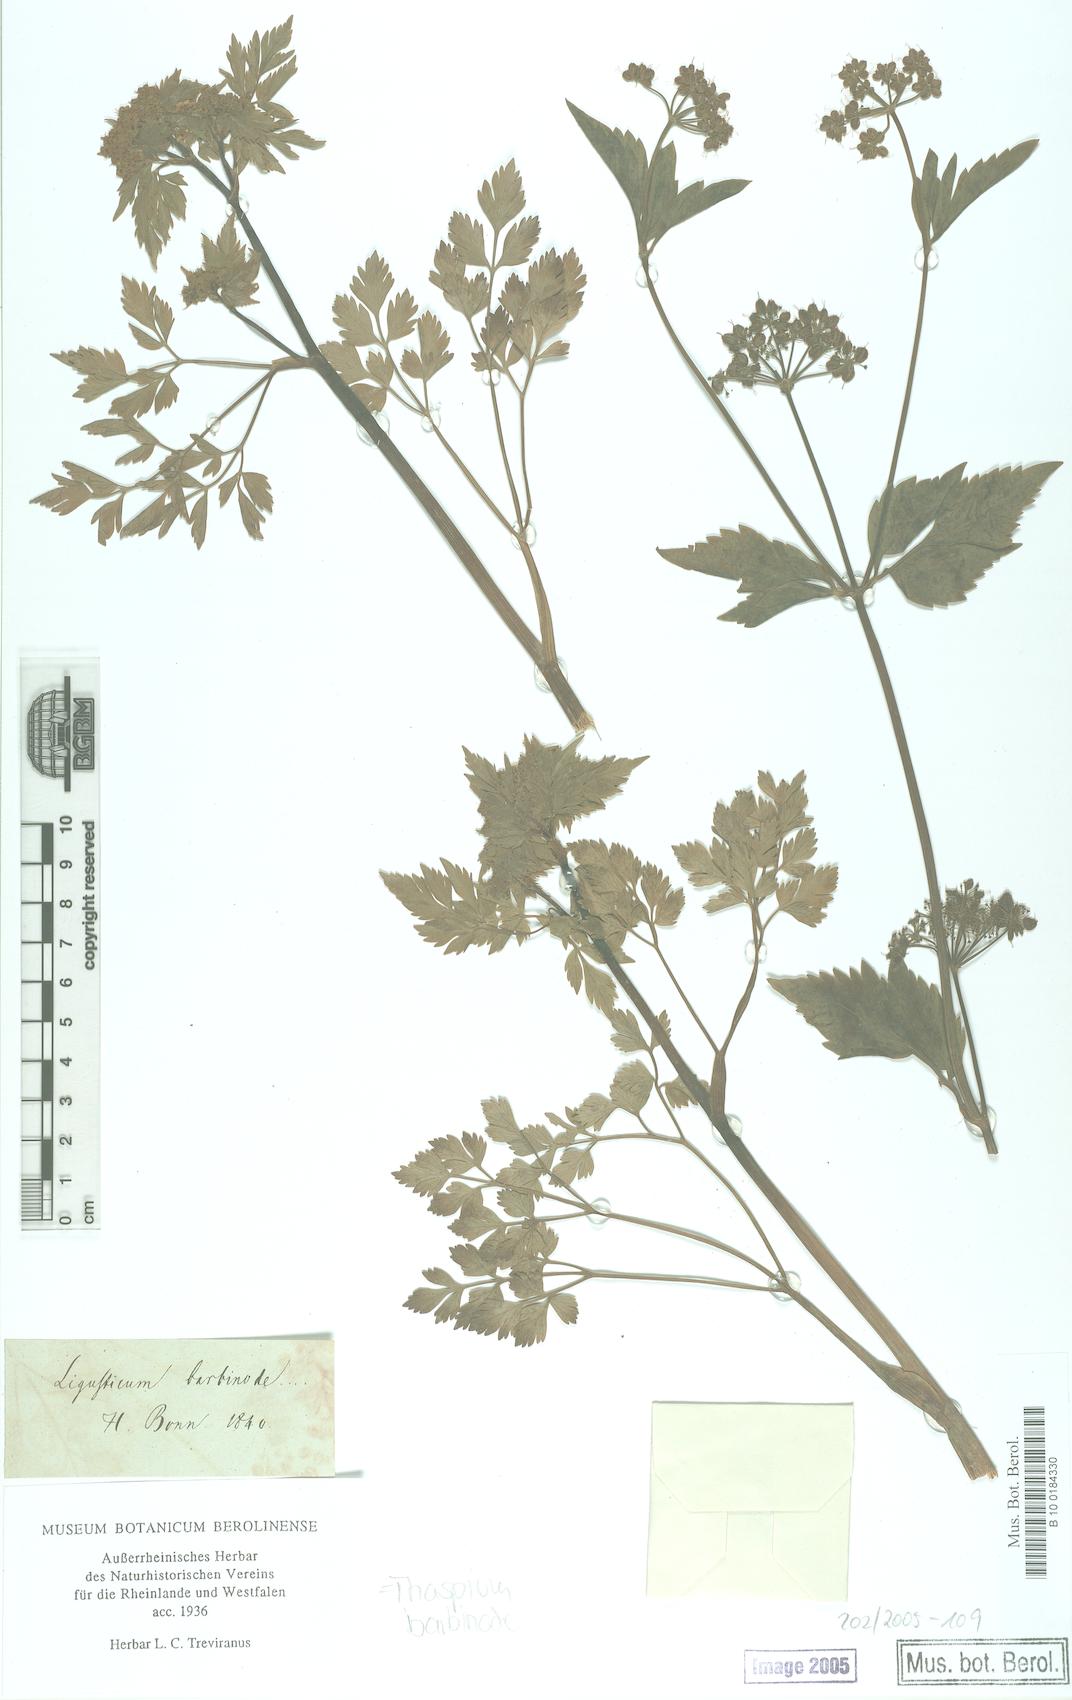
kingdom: Plantae
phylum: Tracheophyta
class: Magnoliopsida
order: Apiales
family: Apiaceae
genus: Thaspium
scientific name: Thaspium barbinode
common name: Bearded meadow-parsnip
